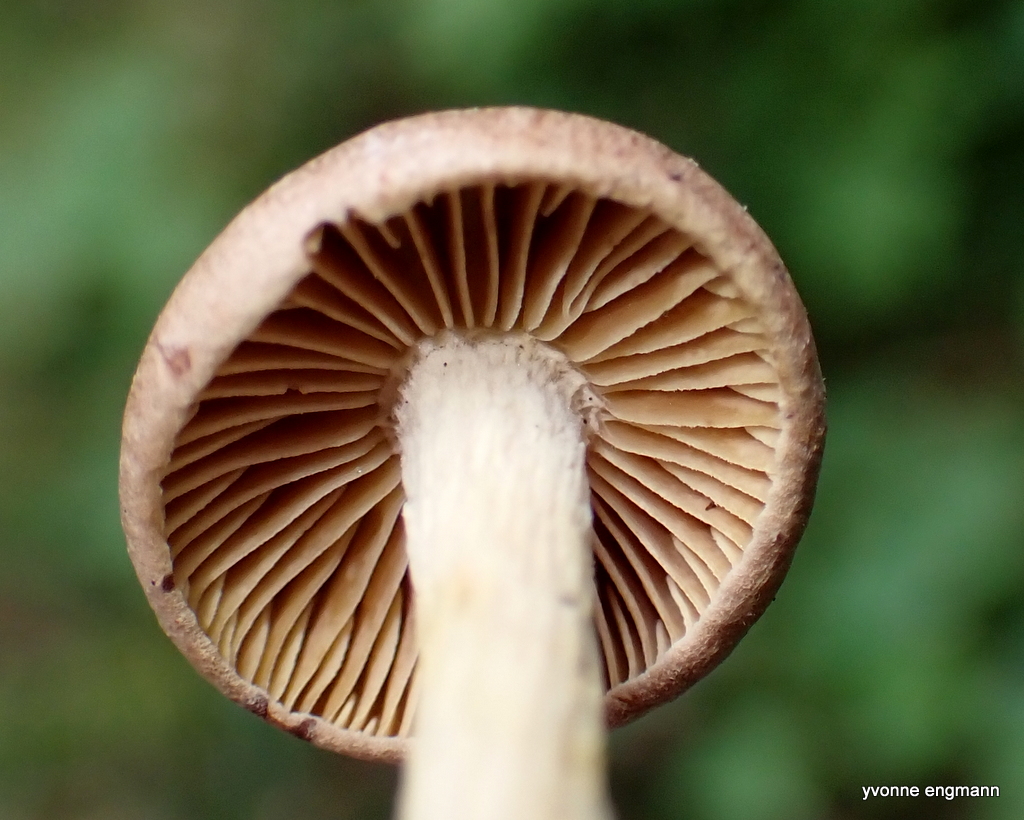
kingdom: Fungi
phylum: Basidiomycota
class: Agaricomycetes
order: Agaricales
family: Omphalotaceae
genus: Collybiopsis
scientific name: Collybiopsis peronata
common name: bestøvlet fladhat
